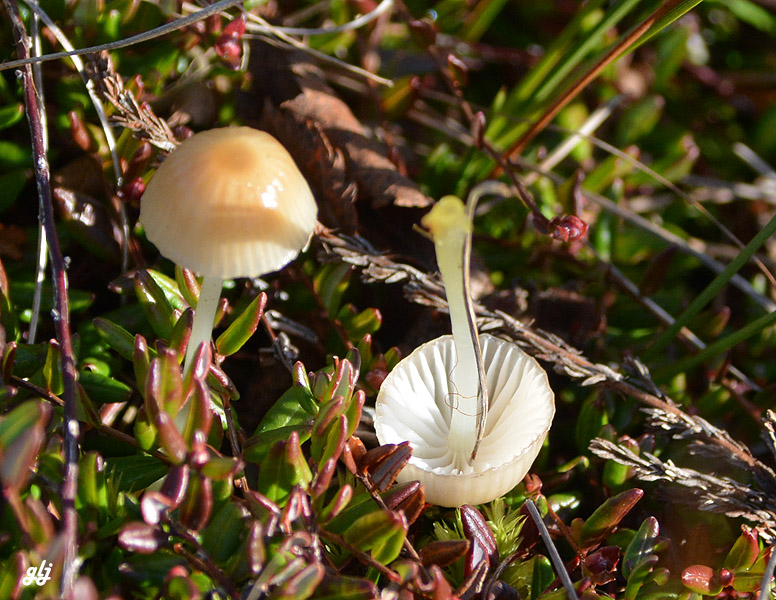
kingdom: Fungi
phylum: Basidiomycota
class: Agaricomycetes
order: Agaricales
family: Mycenaceae
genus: Mycena
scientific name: Mycena epipterygia
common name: gulstokket huesvamp
